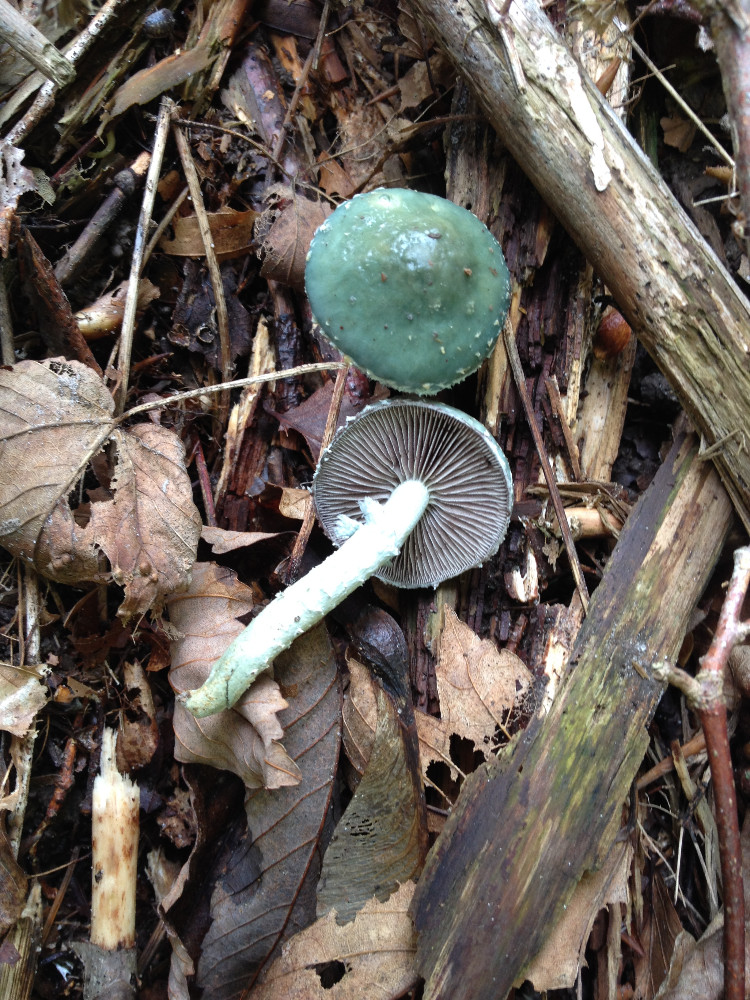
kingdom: Fungi
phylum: Basidiomycota
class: Agaricomycetes
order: Agaricales
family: Strophariaceae
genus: Stropharia
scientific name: Stropharia aeruginosa
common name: spanskgrøn bredblad
